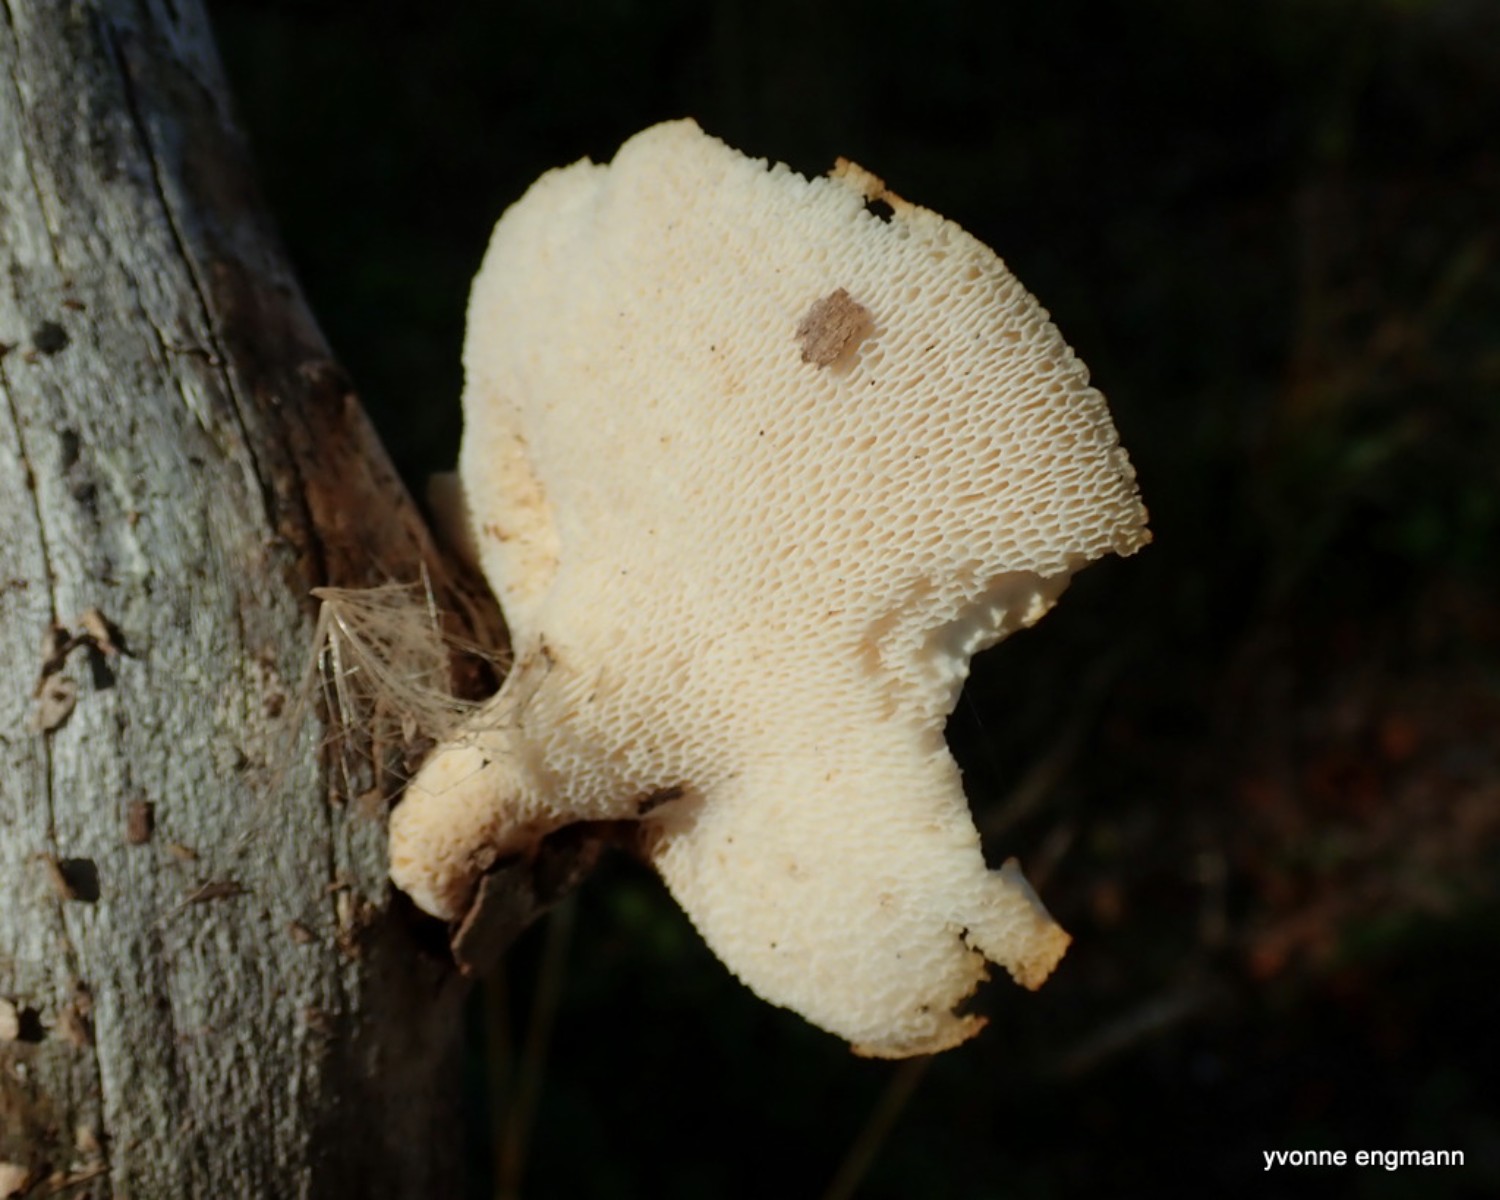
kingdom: Fungi
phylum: Basidiomycota
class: Agaricomycetes
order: Polyporales
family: Polyporaceae
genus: Cerioporus
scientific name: Cerioporus varius
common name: foranderlig stilkporesvamp
